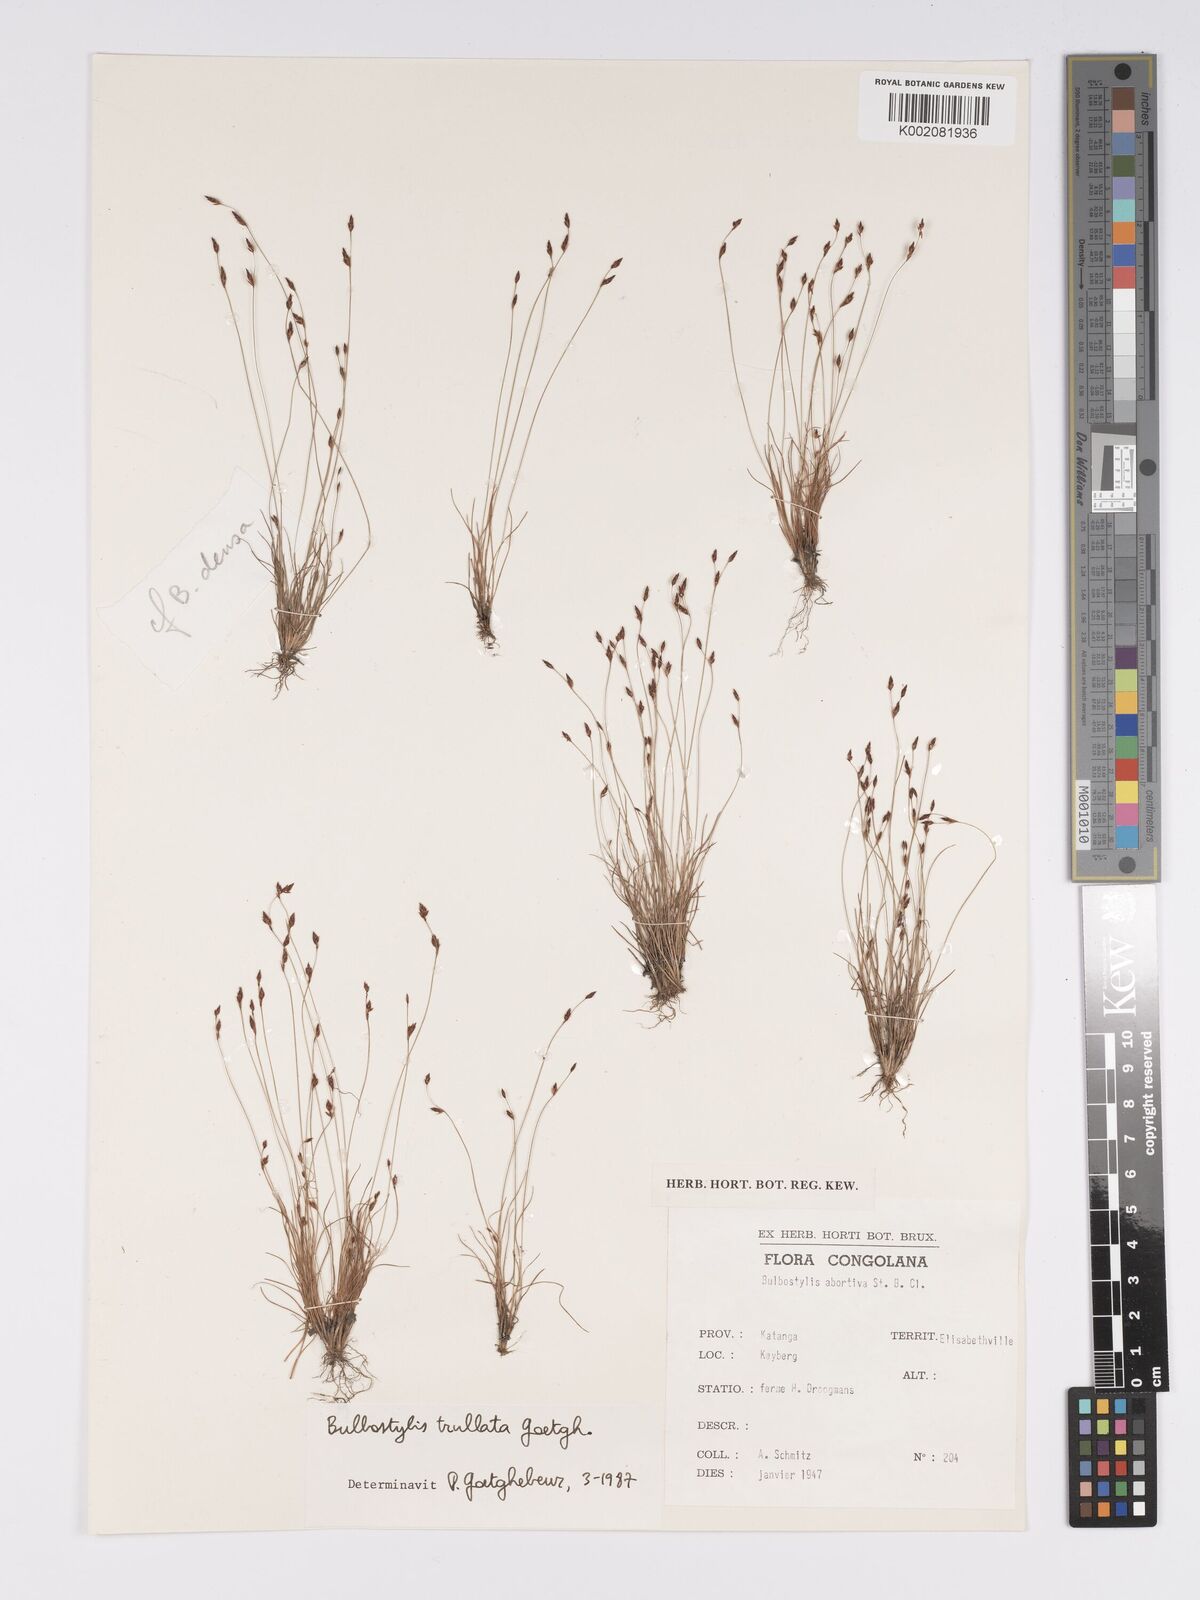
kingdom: Plantae
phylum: Tracheophyta
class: Liliopsida
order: Poales
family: Cyperaceae
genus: Bulbostylis
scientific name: Bulbostylis trullata
